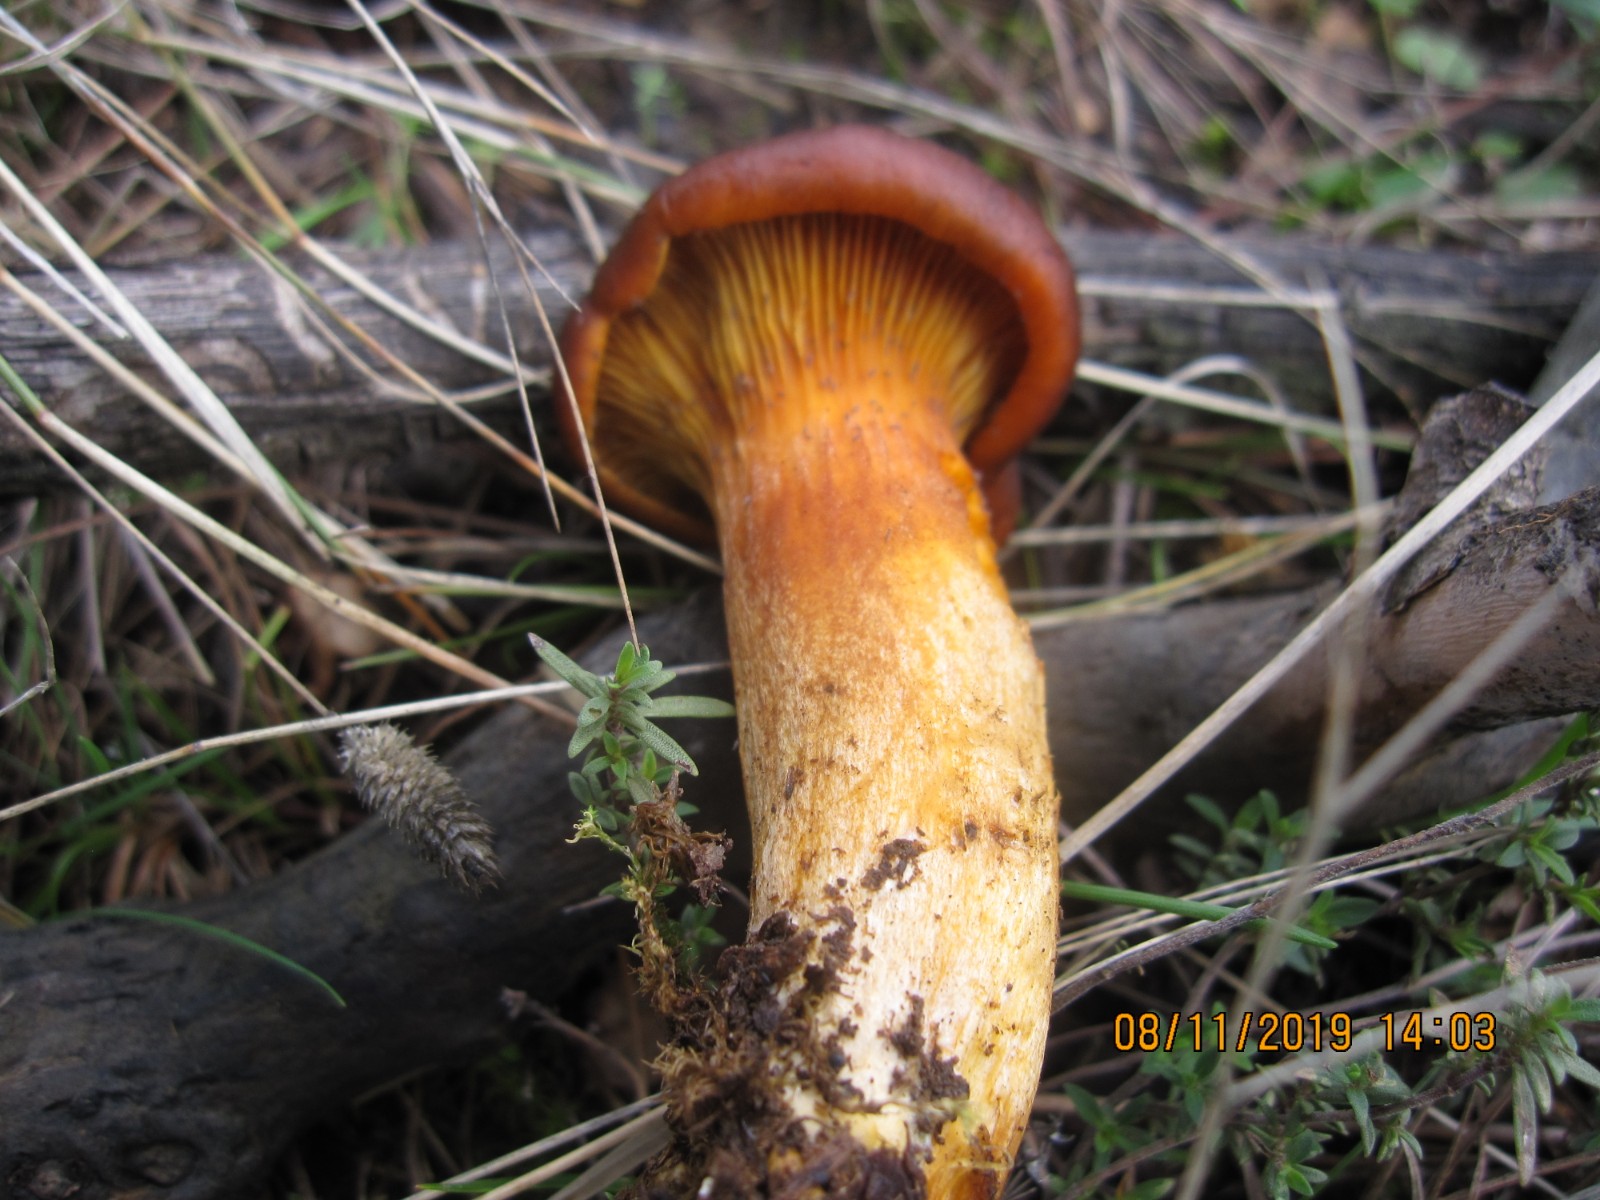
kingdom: Fungi
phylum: Basidiomycota
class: Agaricomycetes
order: Agaricales
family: Omphalotaceae
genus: Omphalotus
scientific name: Omphalotus olearius
